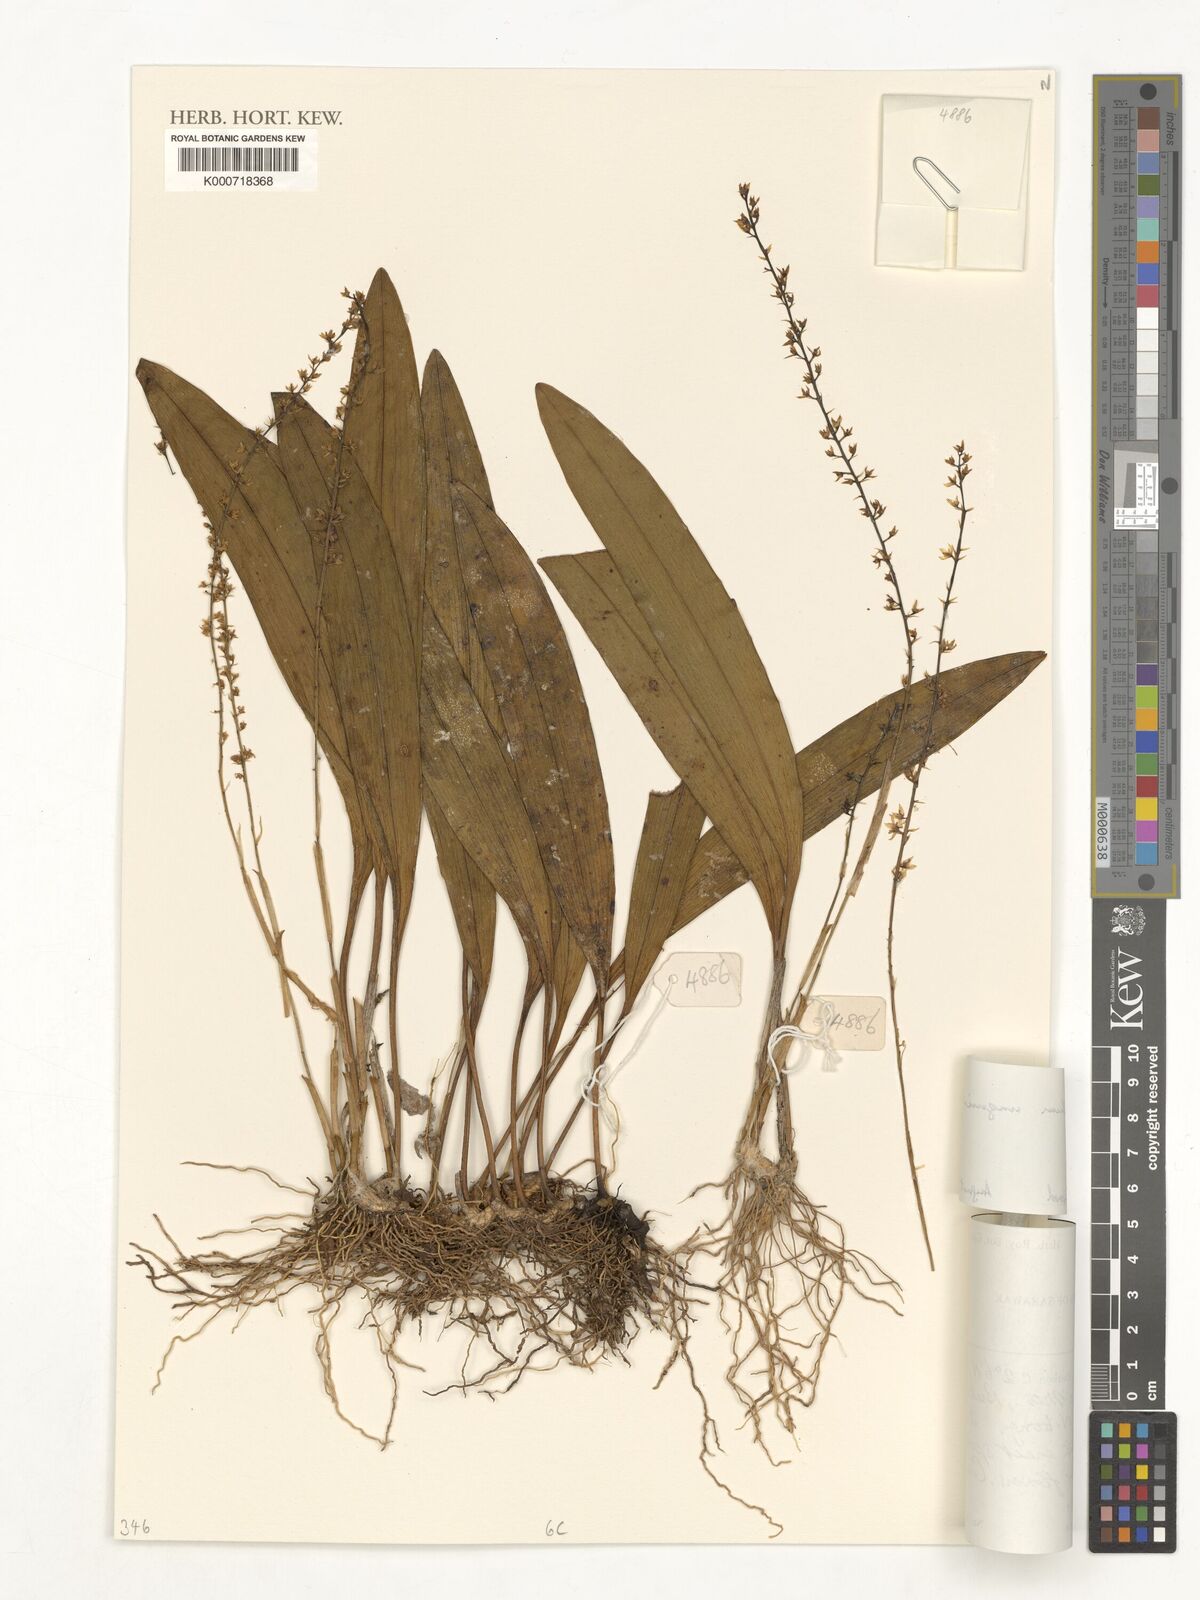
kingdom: Plantae
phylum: Tracheophyta
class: Liliopsida
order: Asparagales
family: Orchidaceae
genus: Bulbophyllum
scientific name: Bulbophyllum unguiculatum
